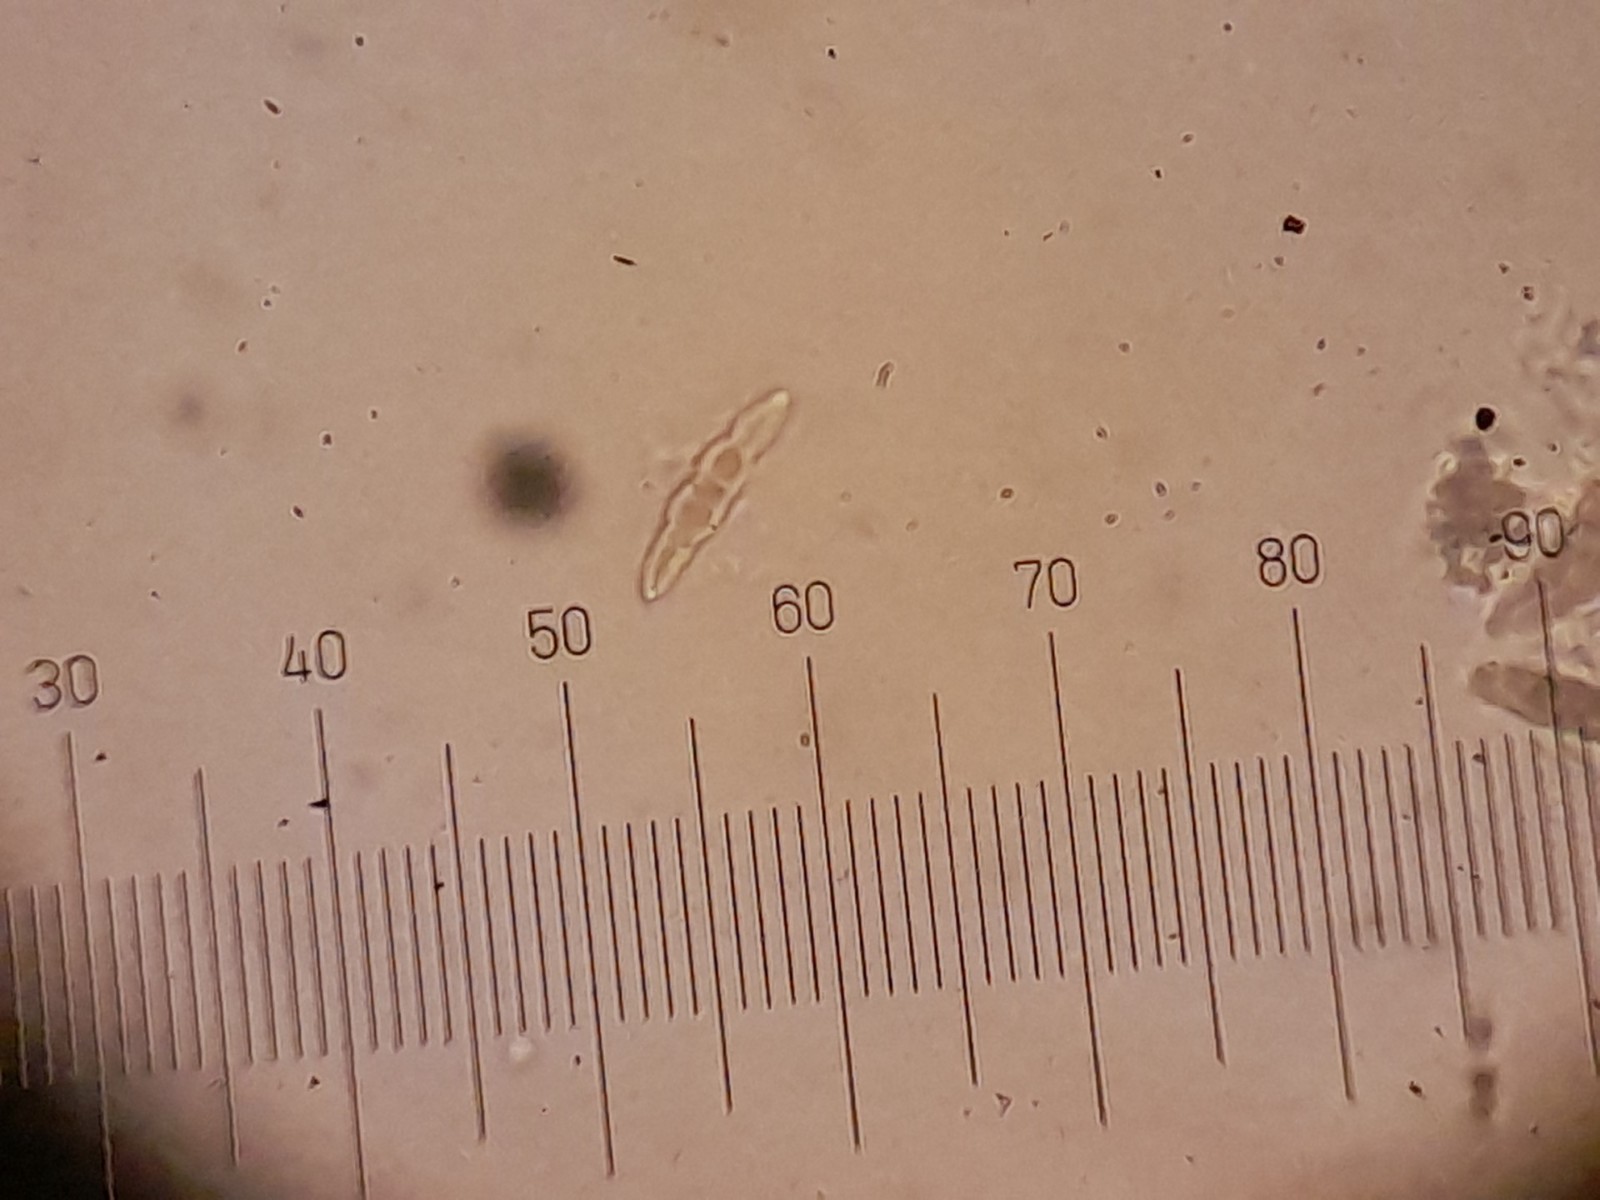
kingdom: Fungi
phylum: Ascomycota
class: Dothideomycetes
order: Pleosporales
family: Leptosphaeriaceae
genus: Leptosphaeria
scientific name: Leptosphaeria doliolum
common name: skærm-kulkegle
